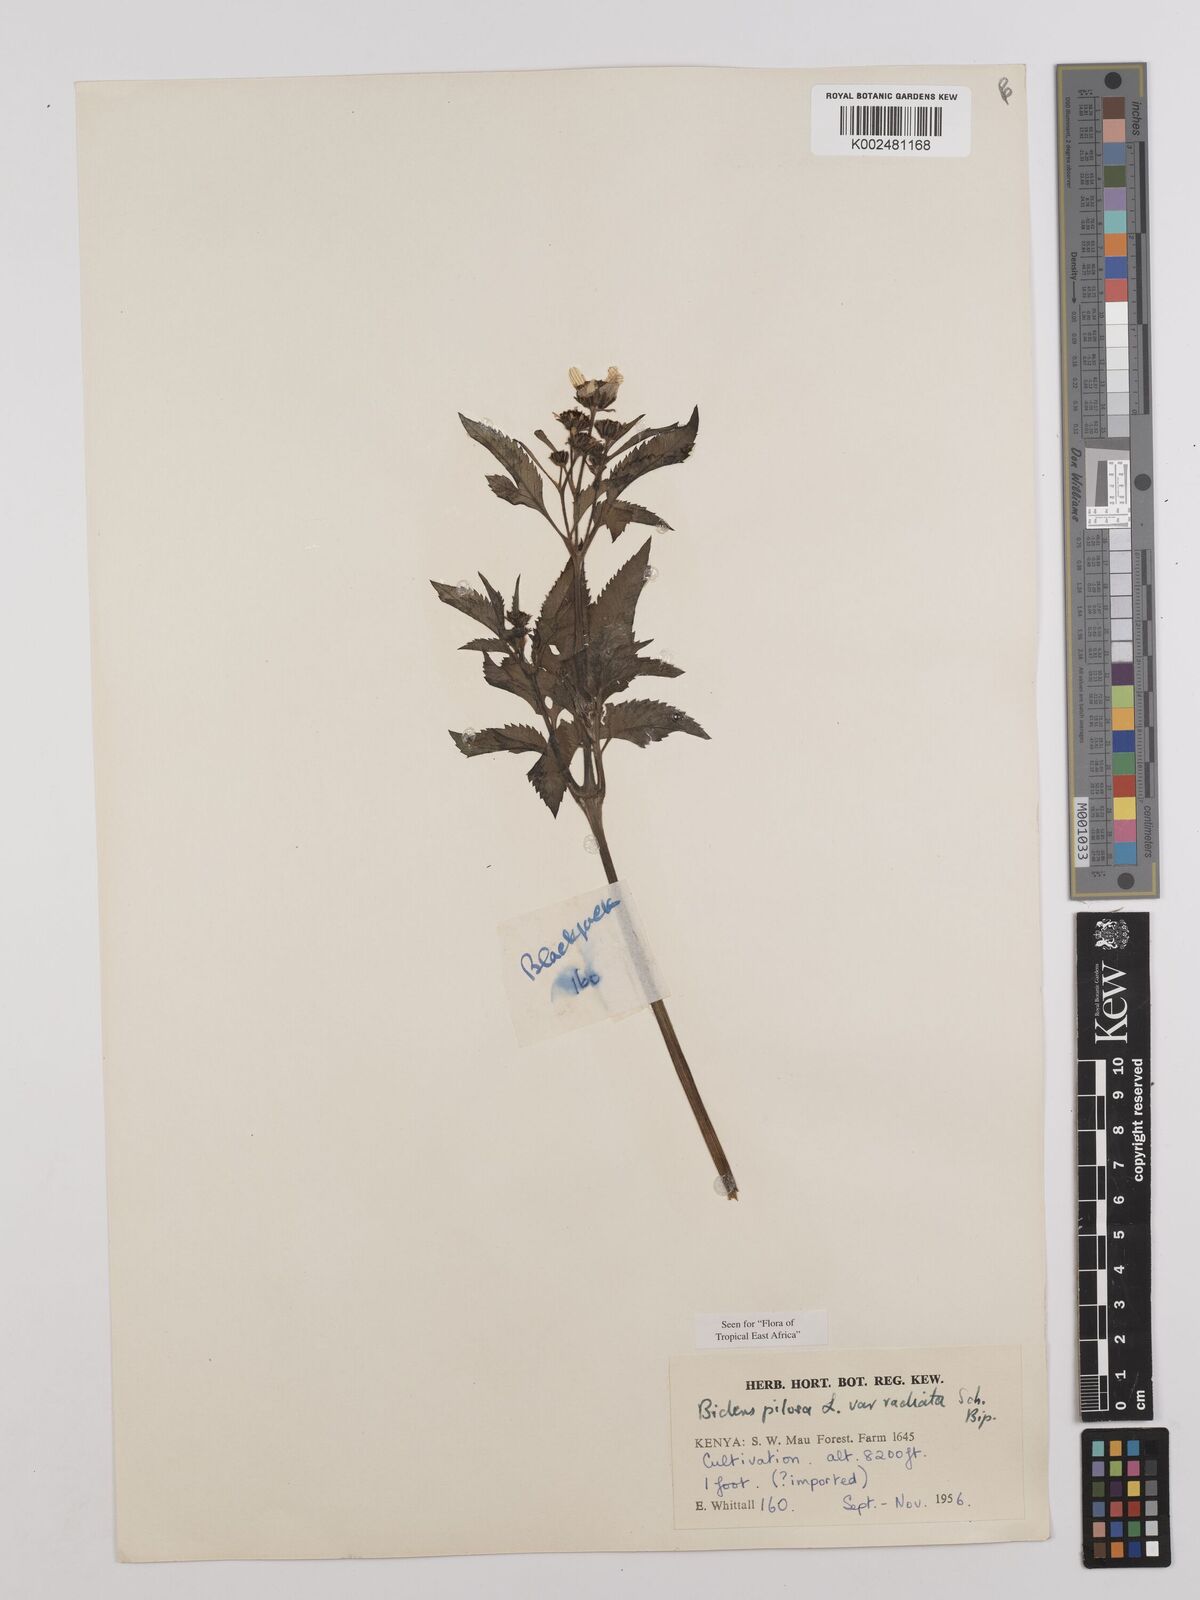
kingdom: Plantae
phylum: Tracheophyta
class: Magnoliopsida
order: Asterales
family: Asteraceae
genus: Bidens
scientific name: Bidens pilosa
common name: Black-jack
